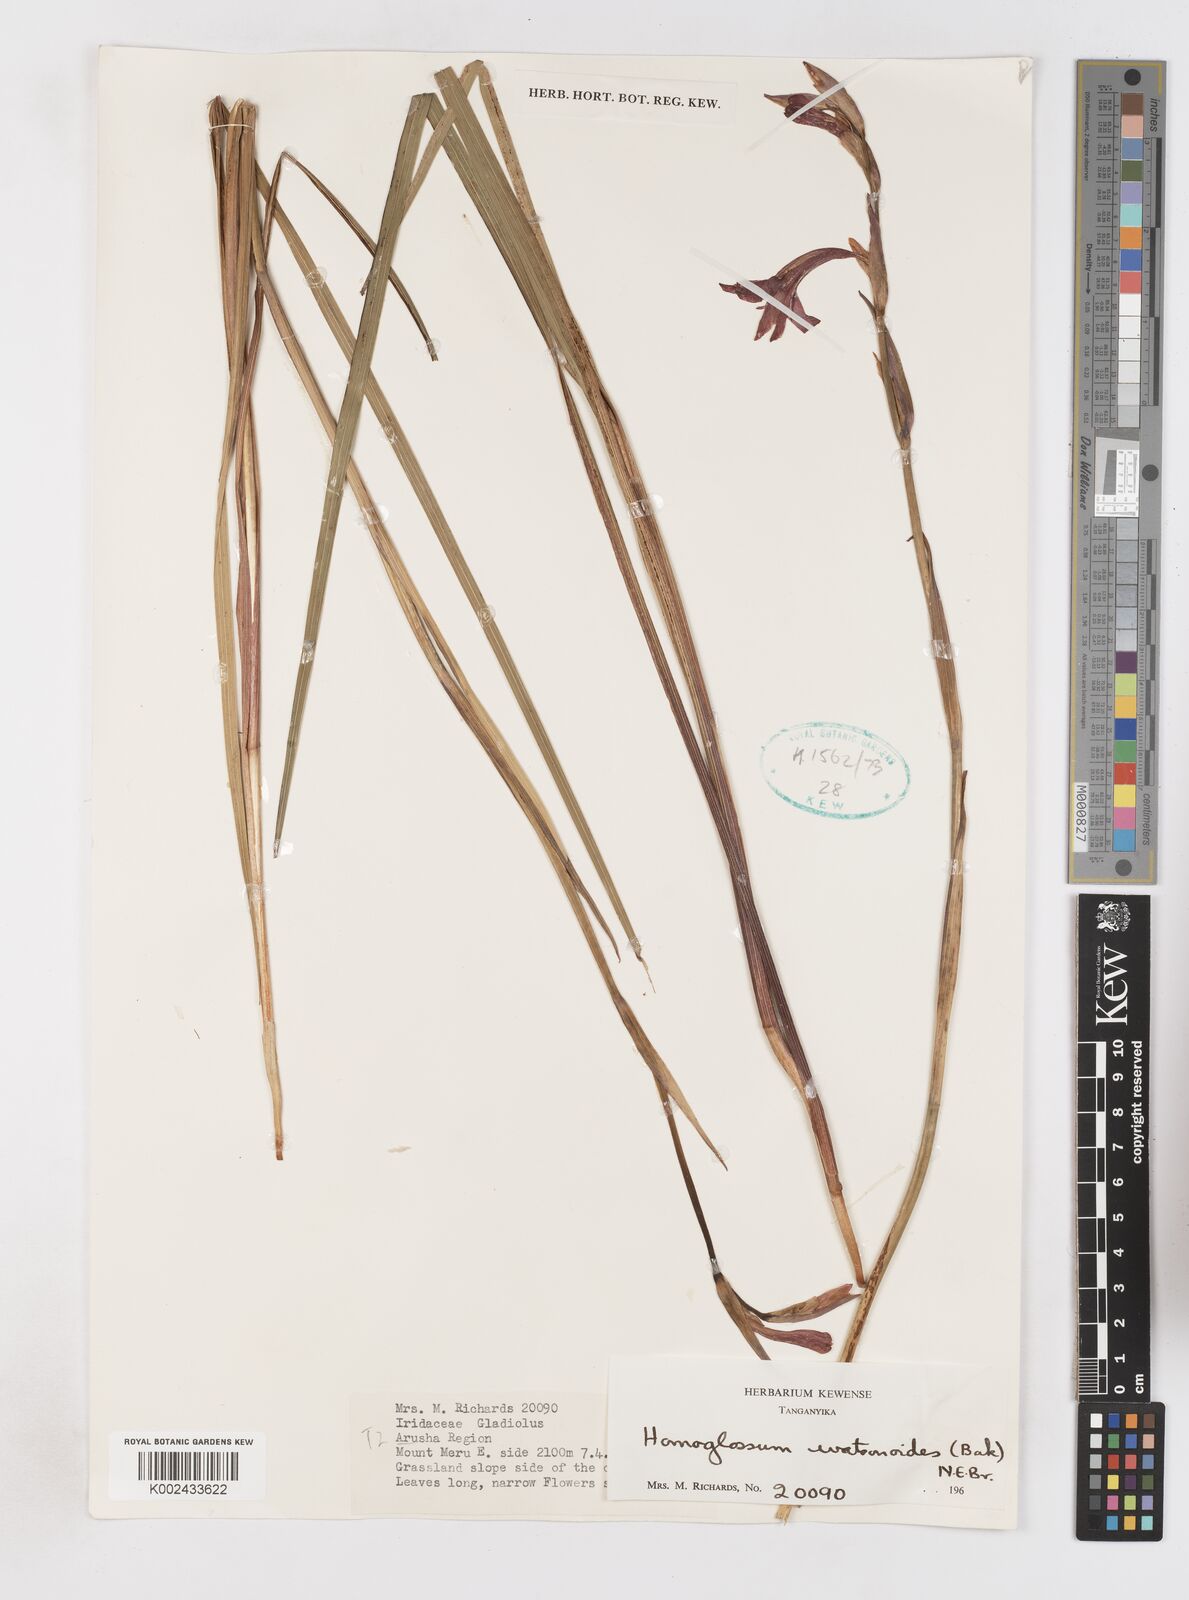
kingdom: Plantae
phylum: Tracheophyta
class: Liliopsida
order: Asparagales
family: Iridaceae
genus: Gladiolus
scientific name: Gladiolus watsonioides
